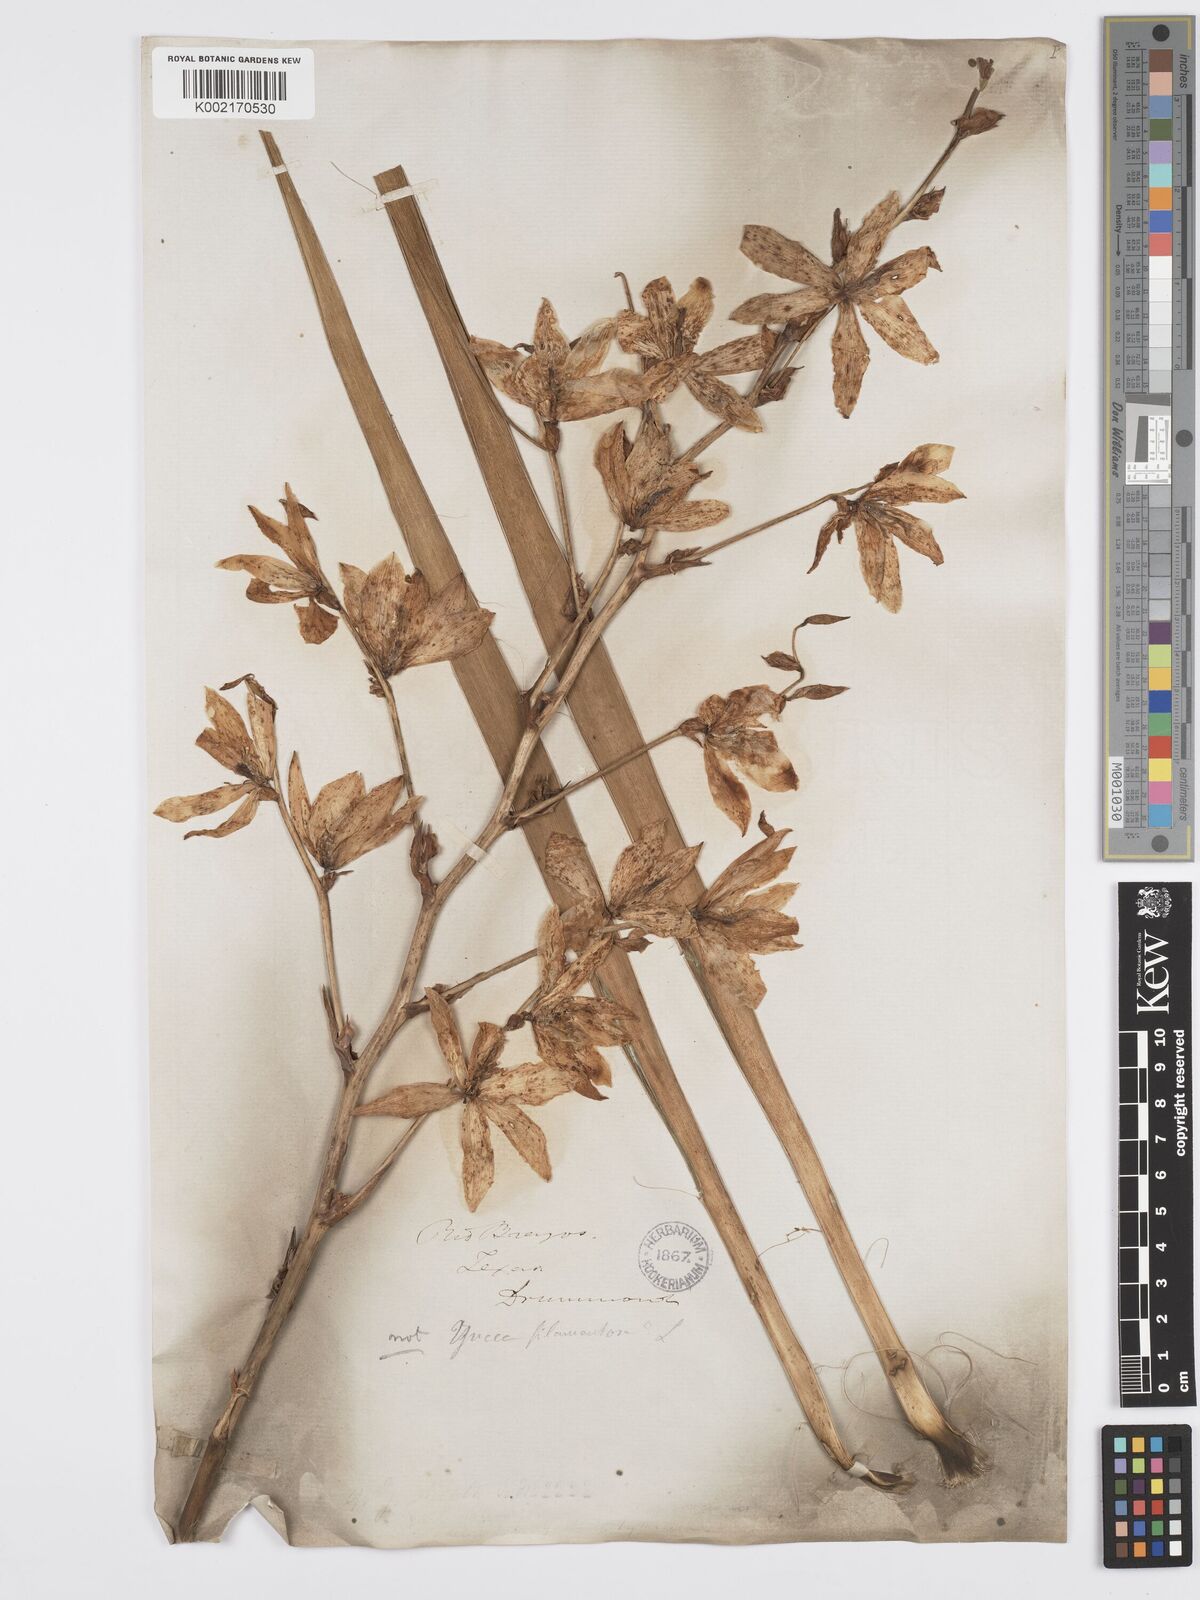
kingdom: Plantae
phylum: Tracheophyta
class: Liliopsida
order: Asparagales
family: Asparagaceae
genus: Yucca
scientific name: Yucca
